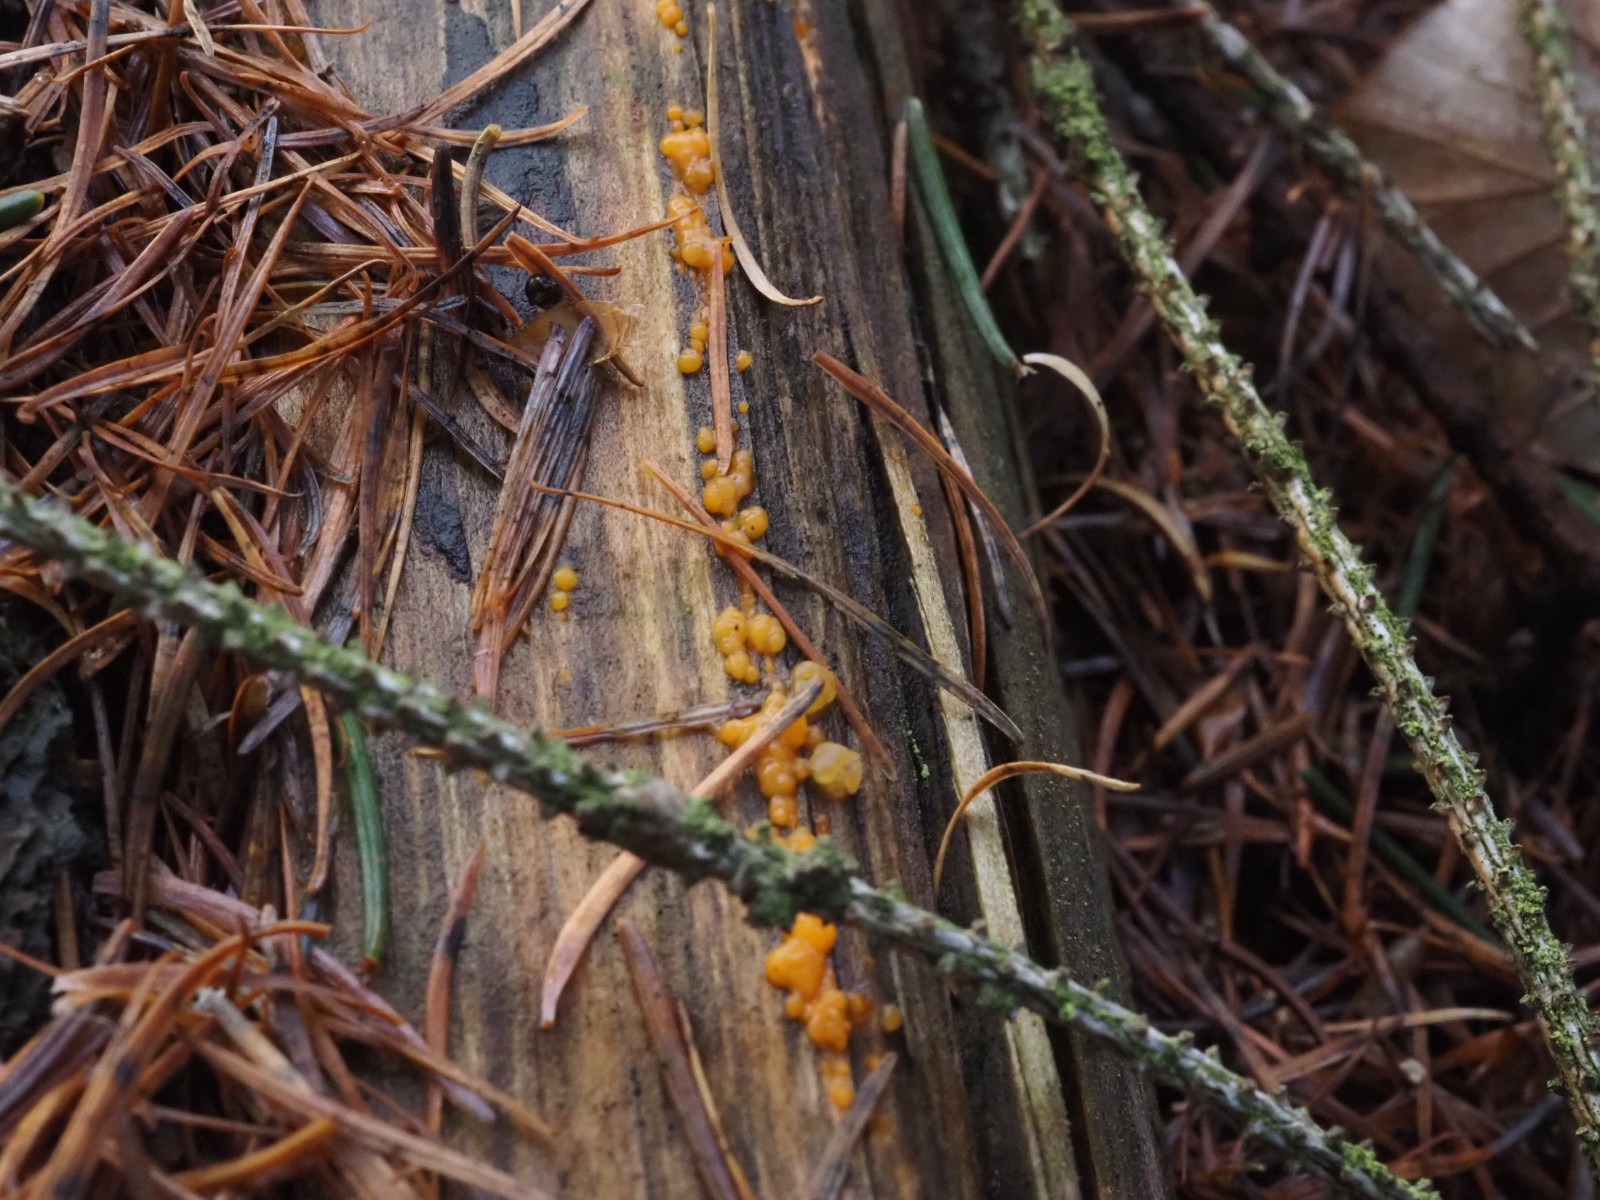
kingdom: Fungi
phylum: Basidiomycota
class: Dacrymycetes
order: Dacrymycetales
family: Dacrymycetaceae
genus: Dacrymyces
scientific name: Dacrymyces stillatus
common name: almindelig tåresvamp
